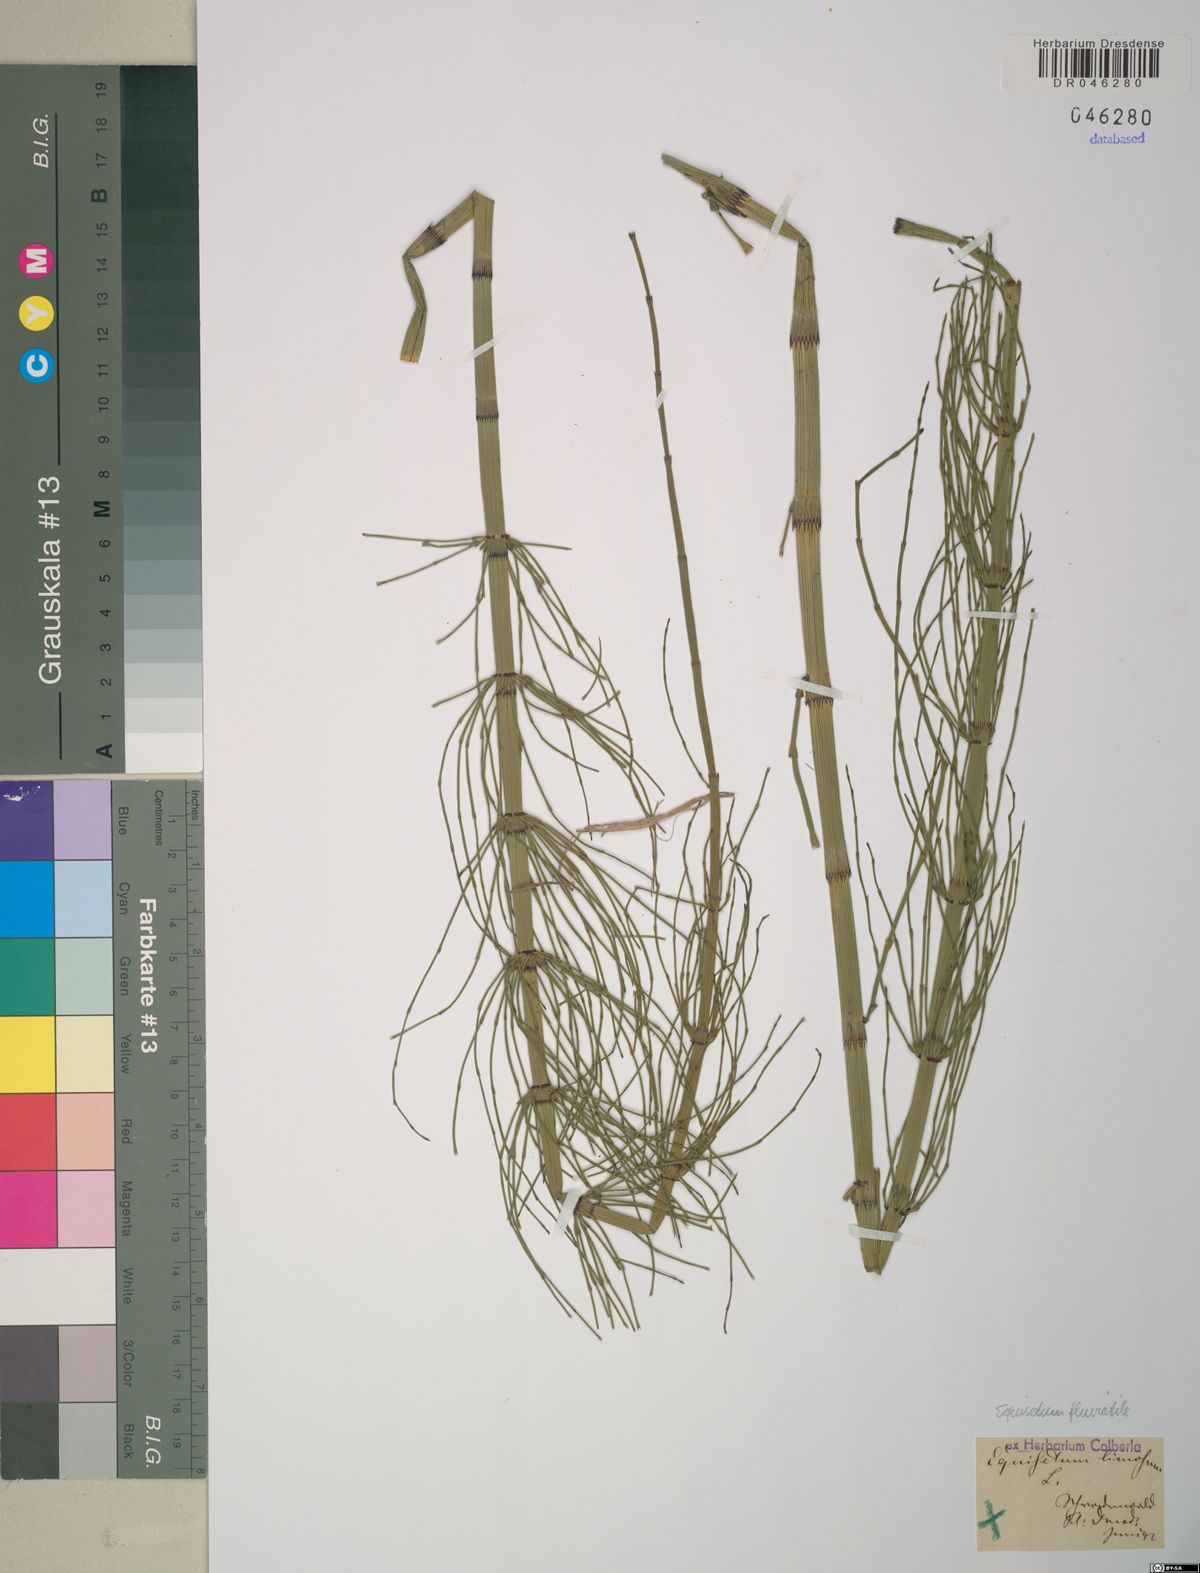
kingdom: Plantae
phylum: Tracheophyta
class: Polypodiopsida
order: Equisetales
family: Equisetaceae
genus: Equisetum
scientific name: Equisetum fluviatile
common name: Water horsetail
